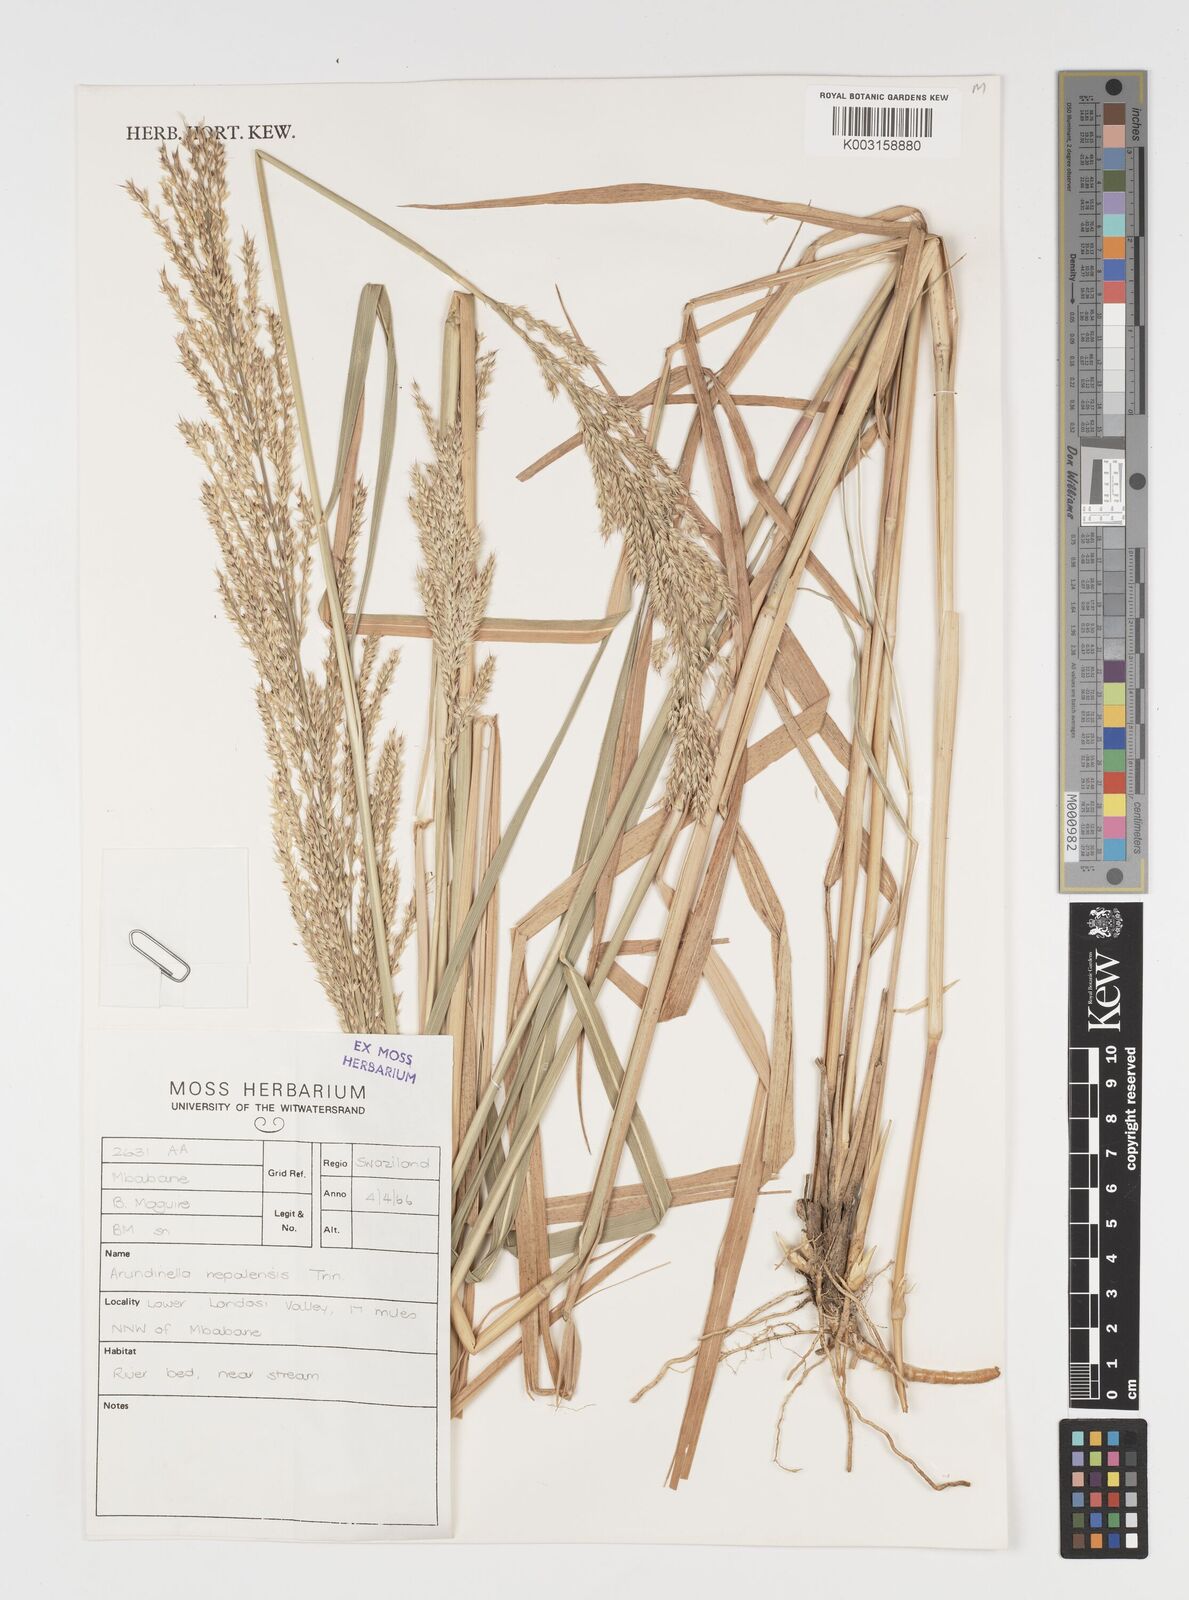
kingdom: Plantae
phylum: Tracheophyta
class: Liliopsida
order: Poales
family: Poaceae
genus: Arundinella
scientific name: Arundinella nepalensis
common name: Reed grass
